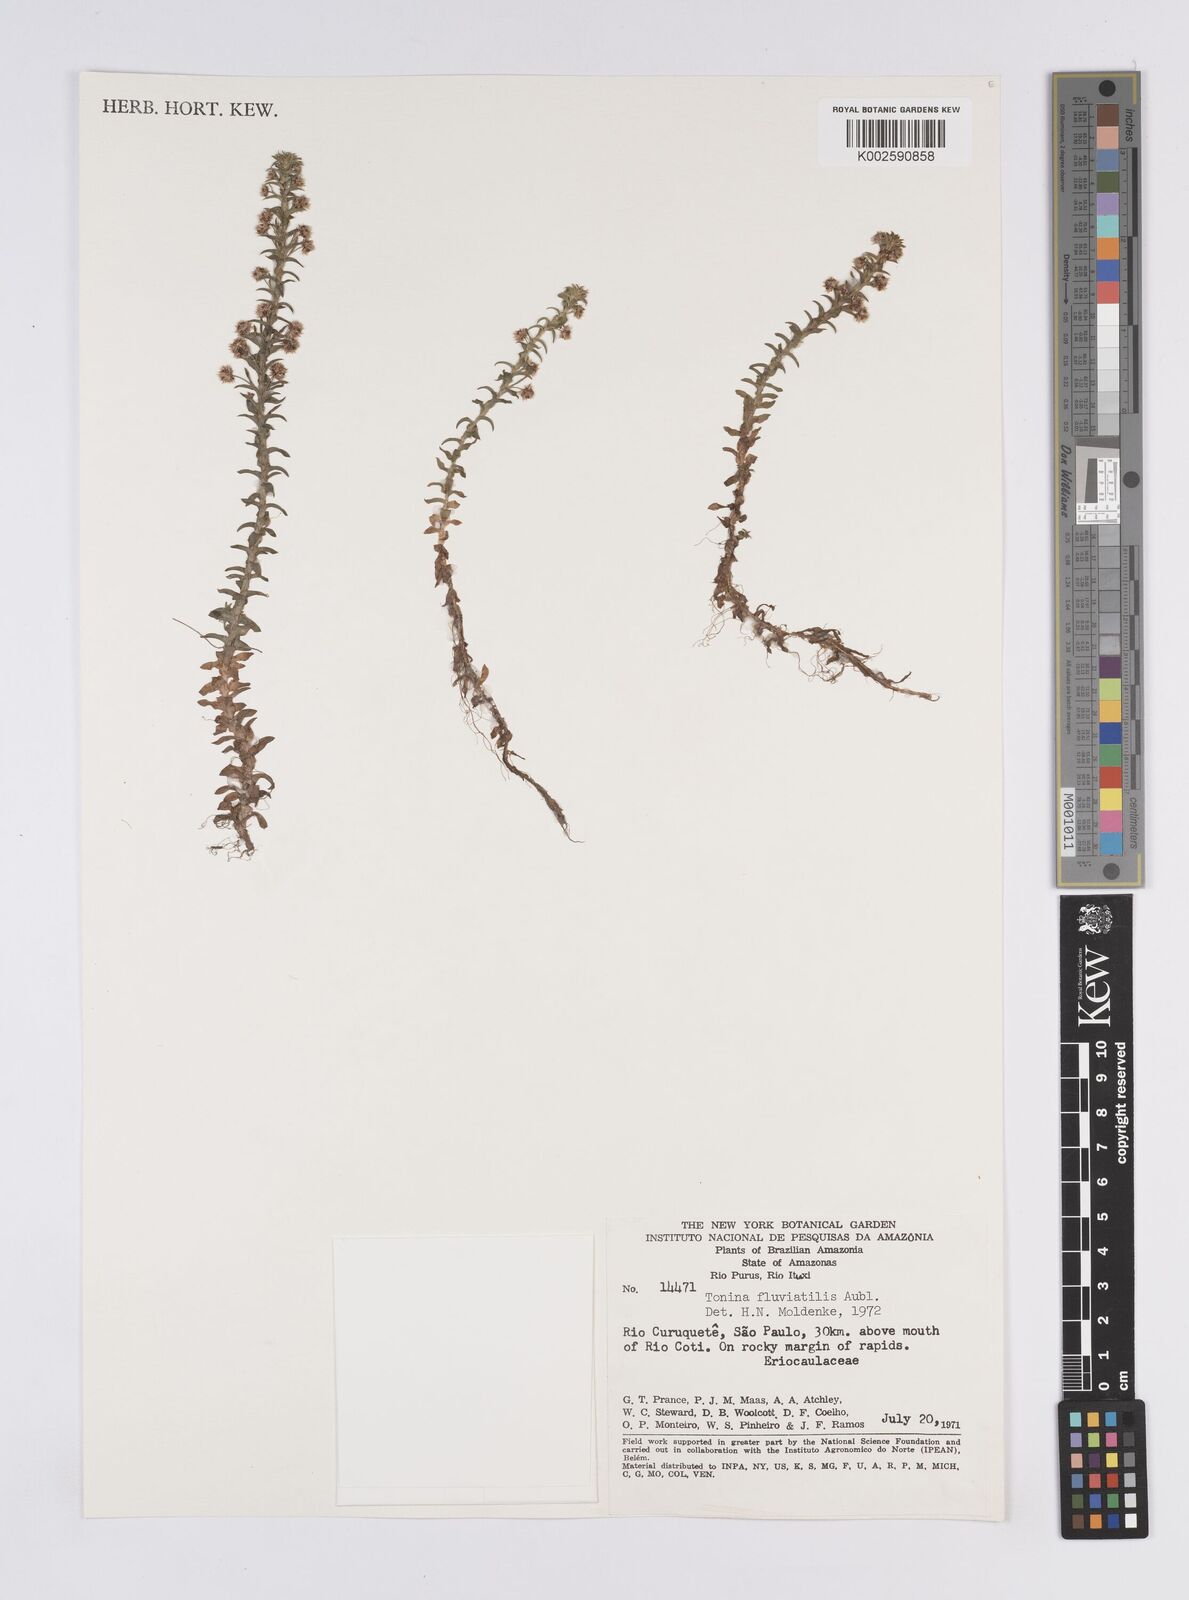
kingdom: Plantae
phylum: Tracheophyta
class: Liliopsida
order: Poales
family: Eriocaulaceae
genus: Paepalanthus
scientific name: Paepalanthus fluviatilis
